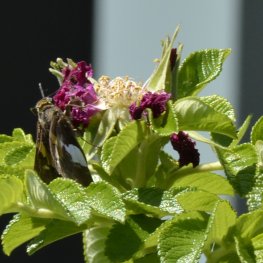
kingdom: Animalia
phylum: Arthropoda
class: Insecta
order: Lepidoptera
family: Hesperiidae
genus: Epargyreus
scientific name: Epargyreus clarus
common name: Silver-spotted Skipper
